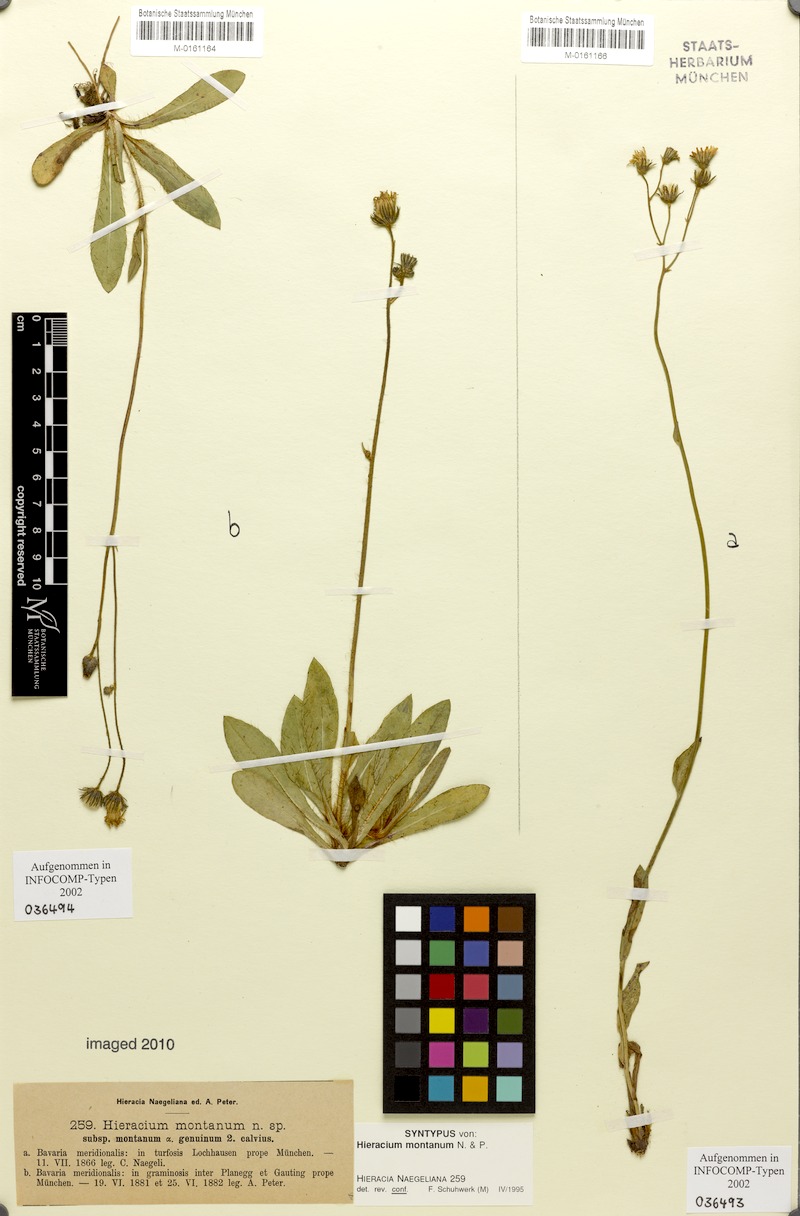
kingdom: Plantae
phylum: Tracheophyta
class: Magnoliopsida
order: Asterales
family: Asteraceae
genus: Pilosella
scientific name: Pilosella chomatophila
